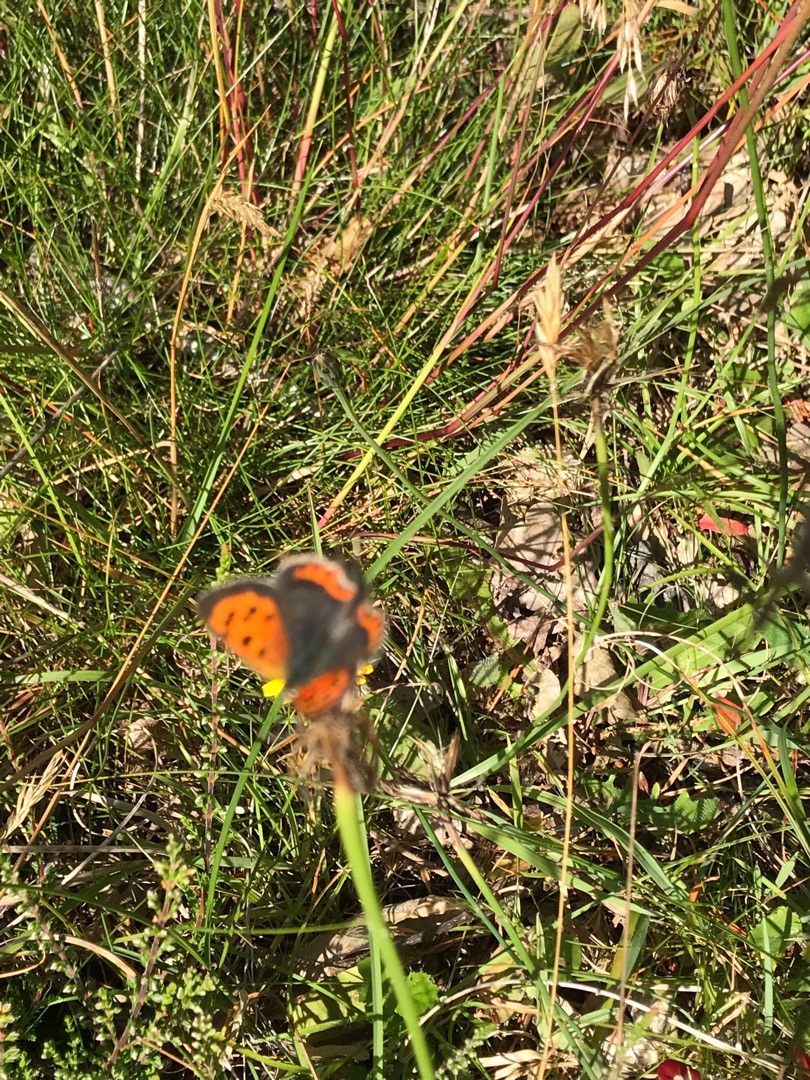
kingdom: Animalia
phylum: Arthropoda
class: Insecta
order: Lepidoptera
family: Lycaenidae
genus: Lycaena
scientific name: Lycaena phlaeas
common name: Lille ildfugl
